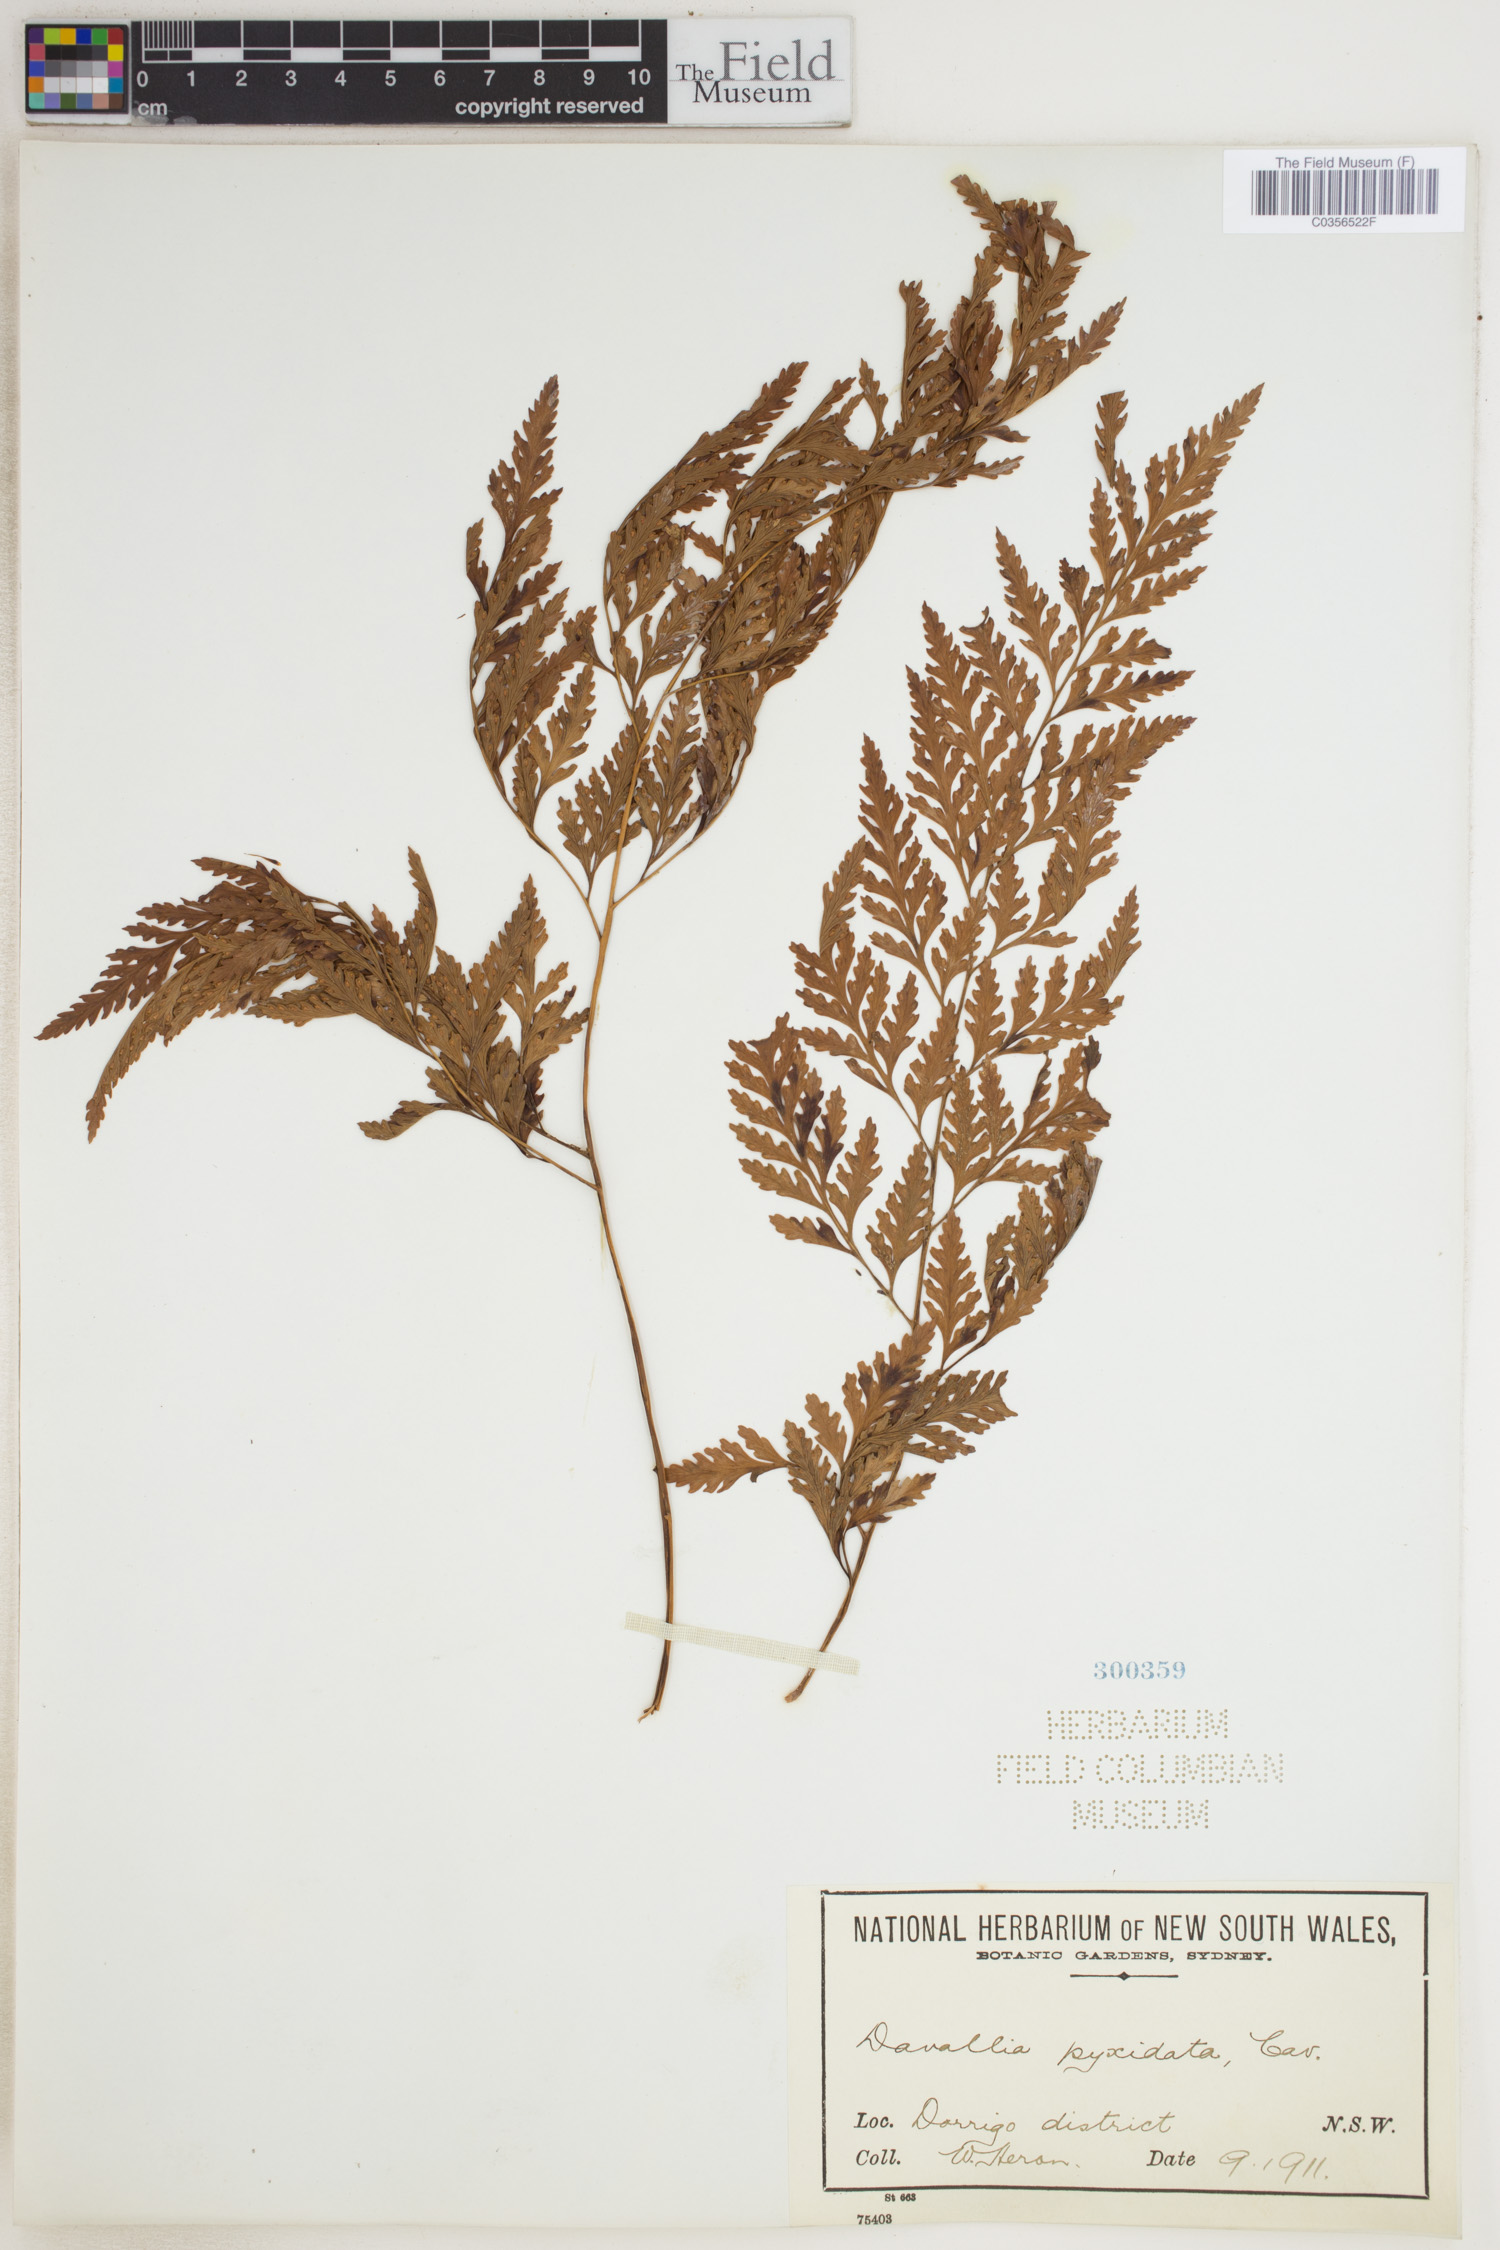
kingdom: Plantae
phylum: Tracheophyta
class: Polypodiopsida
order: Polypodiales
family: Davalliaceae
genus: Davallia
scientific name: Davallia pyxidata
